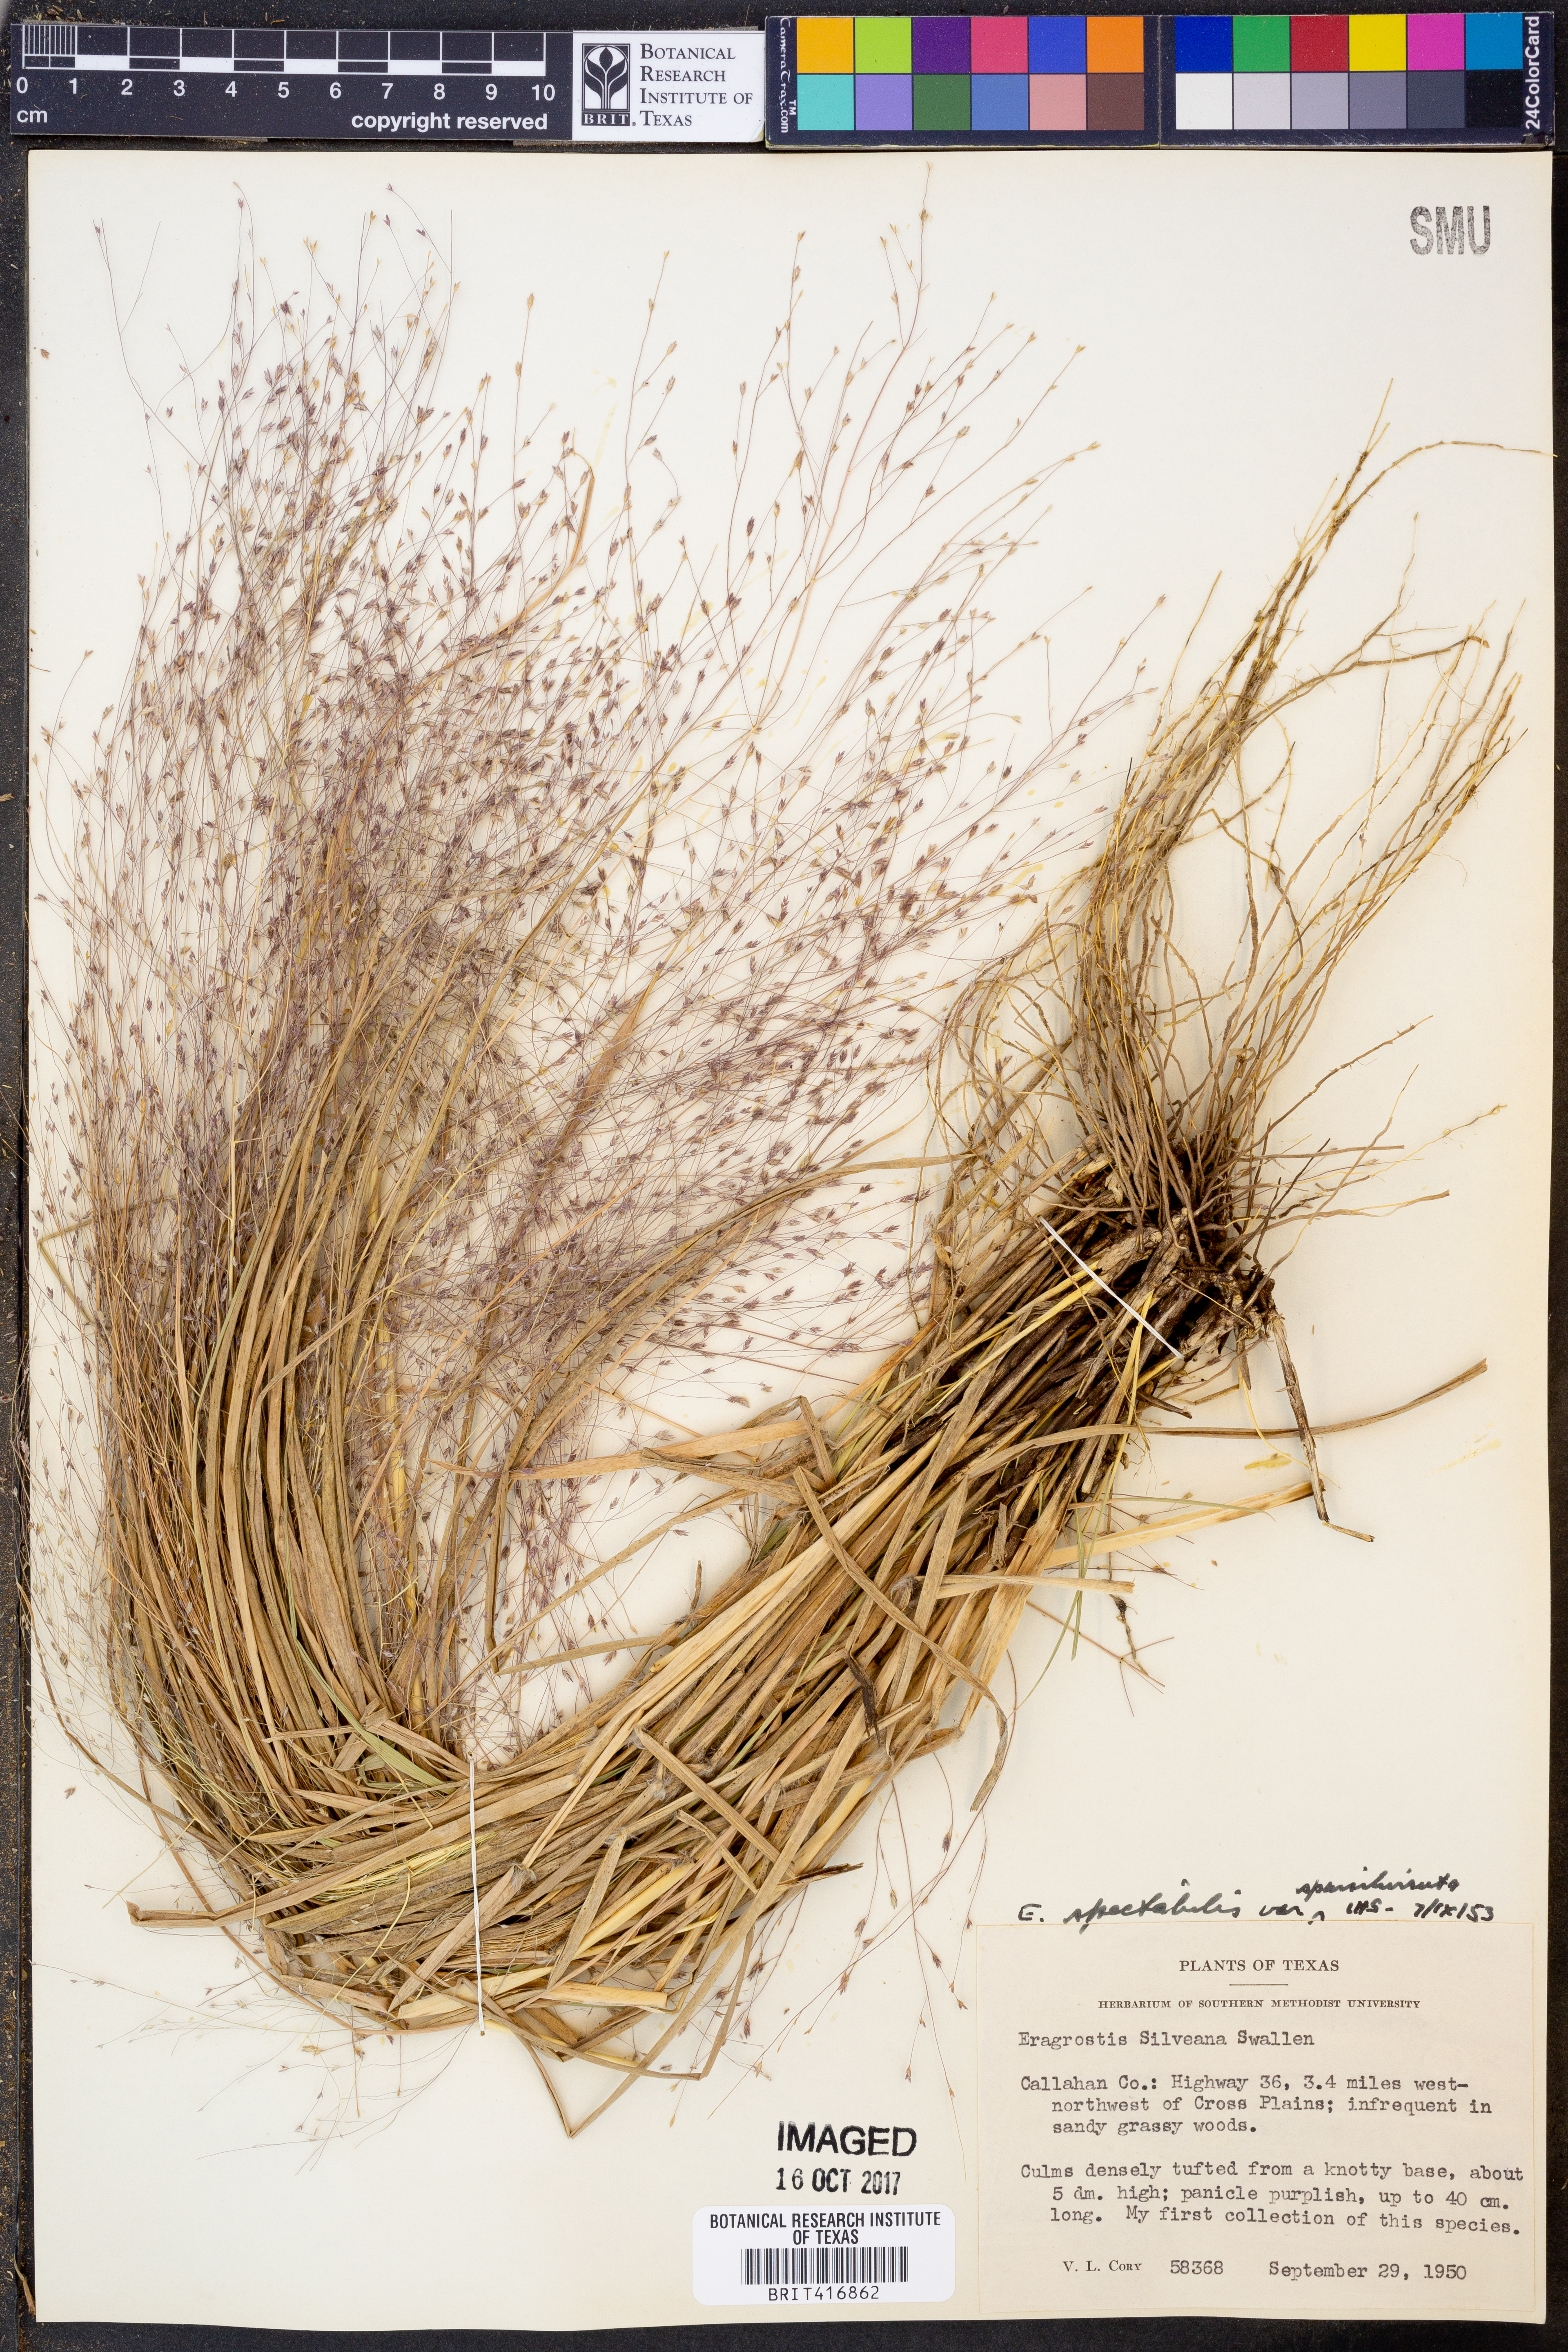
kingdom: Plantae
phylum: Tracheophyta
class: Liliopsida
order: Poales
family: Poaceae
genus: Eragrostis
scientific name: Eragrostis spectabilis
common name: Petticoat-climber
